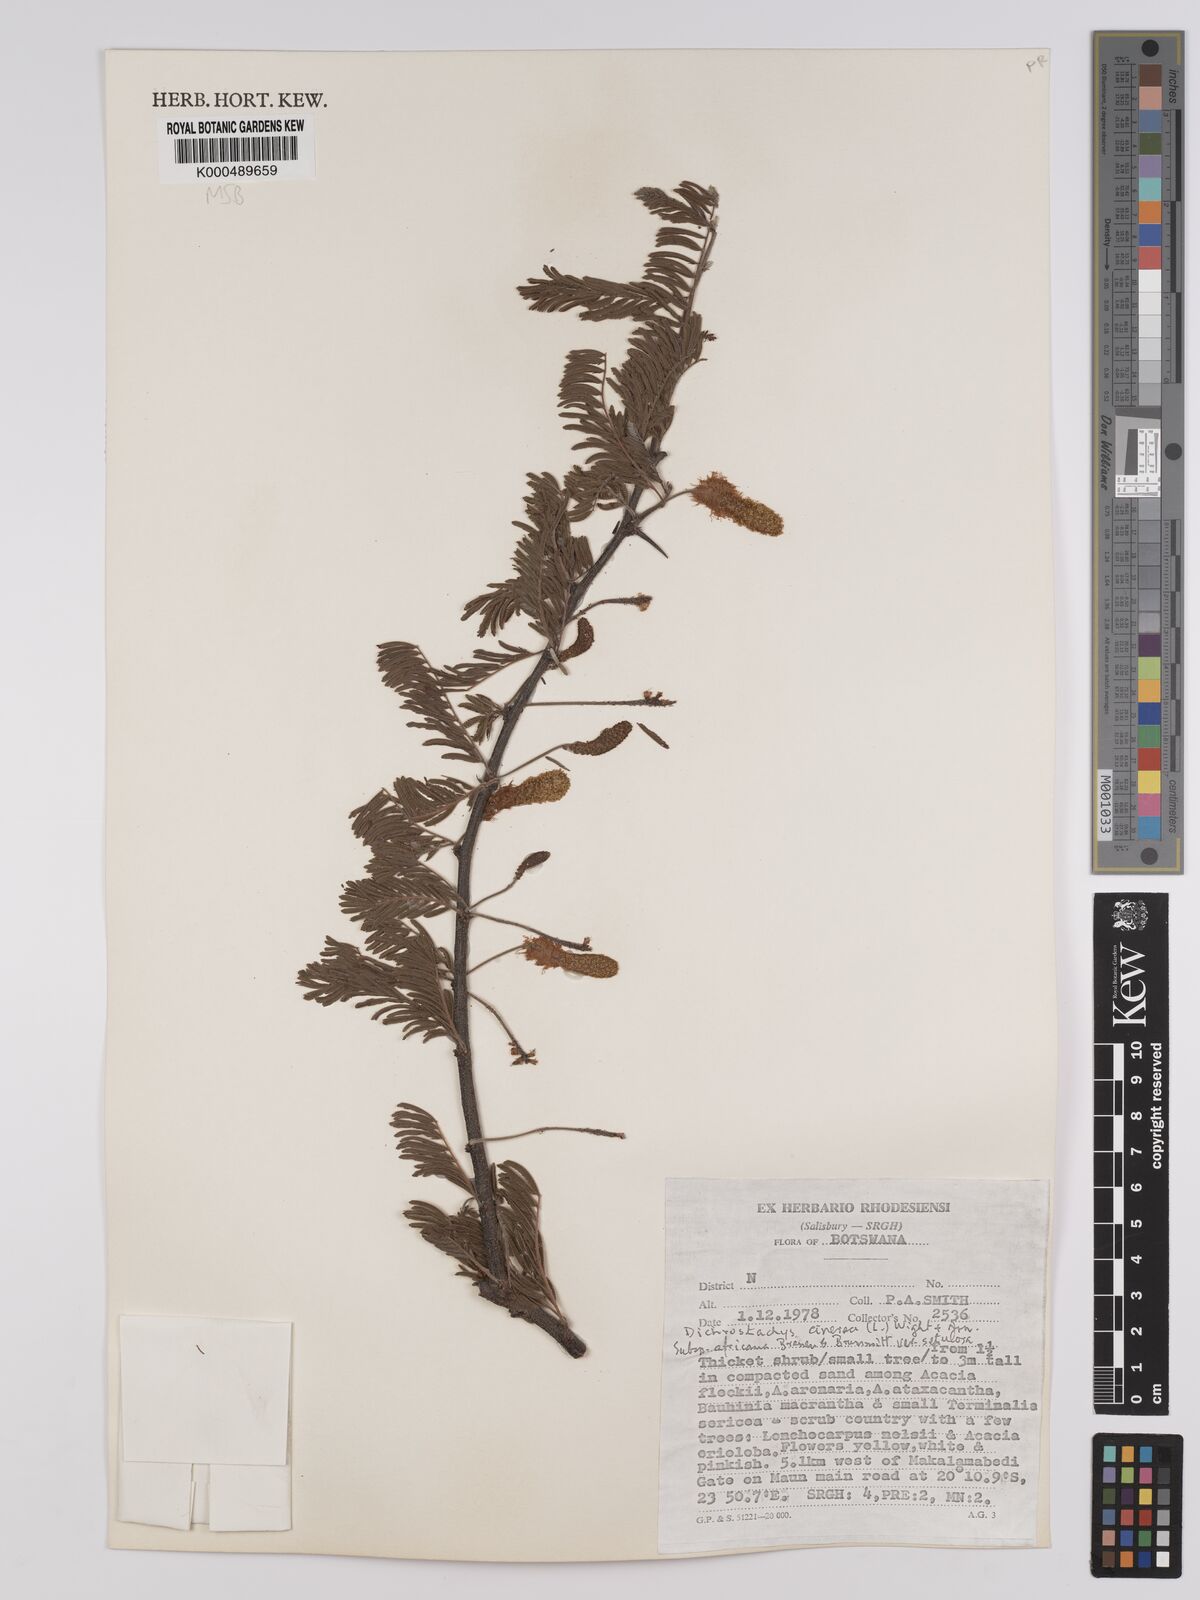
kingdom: Plantae
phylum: Tracheophyta
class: Magnoliopsida
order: Fabales
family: Fabaceae
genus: Dichrostachys
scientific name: Dichrostachys cinerea
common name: Sicklebush
